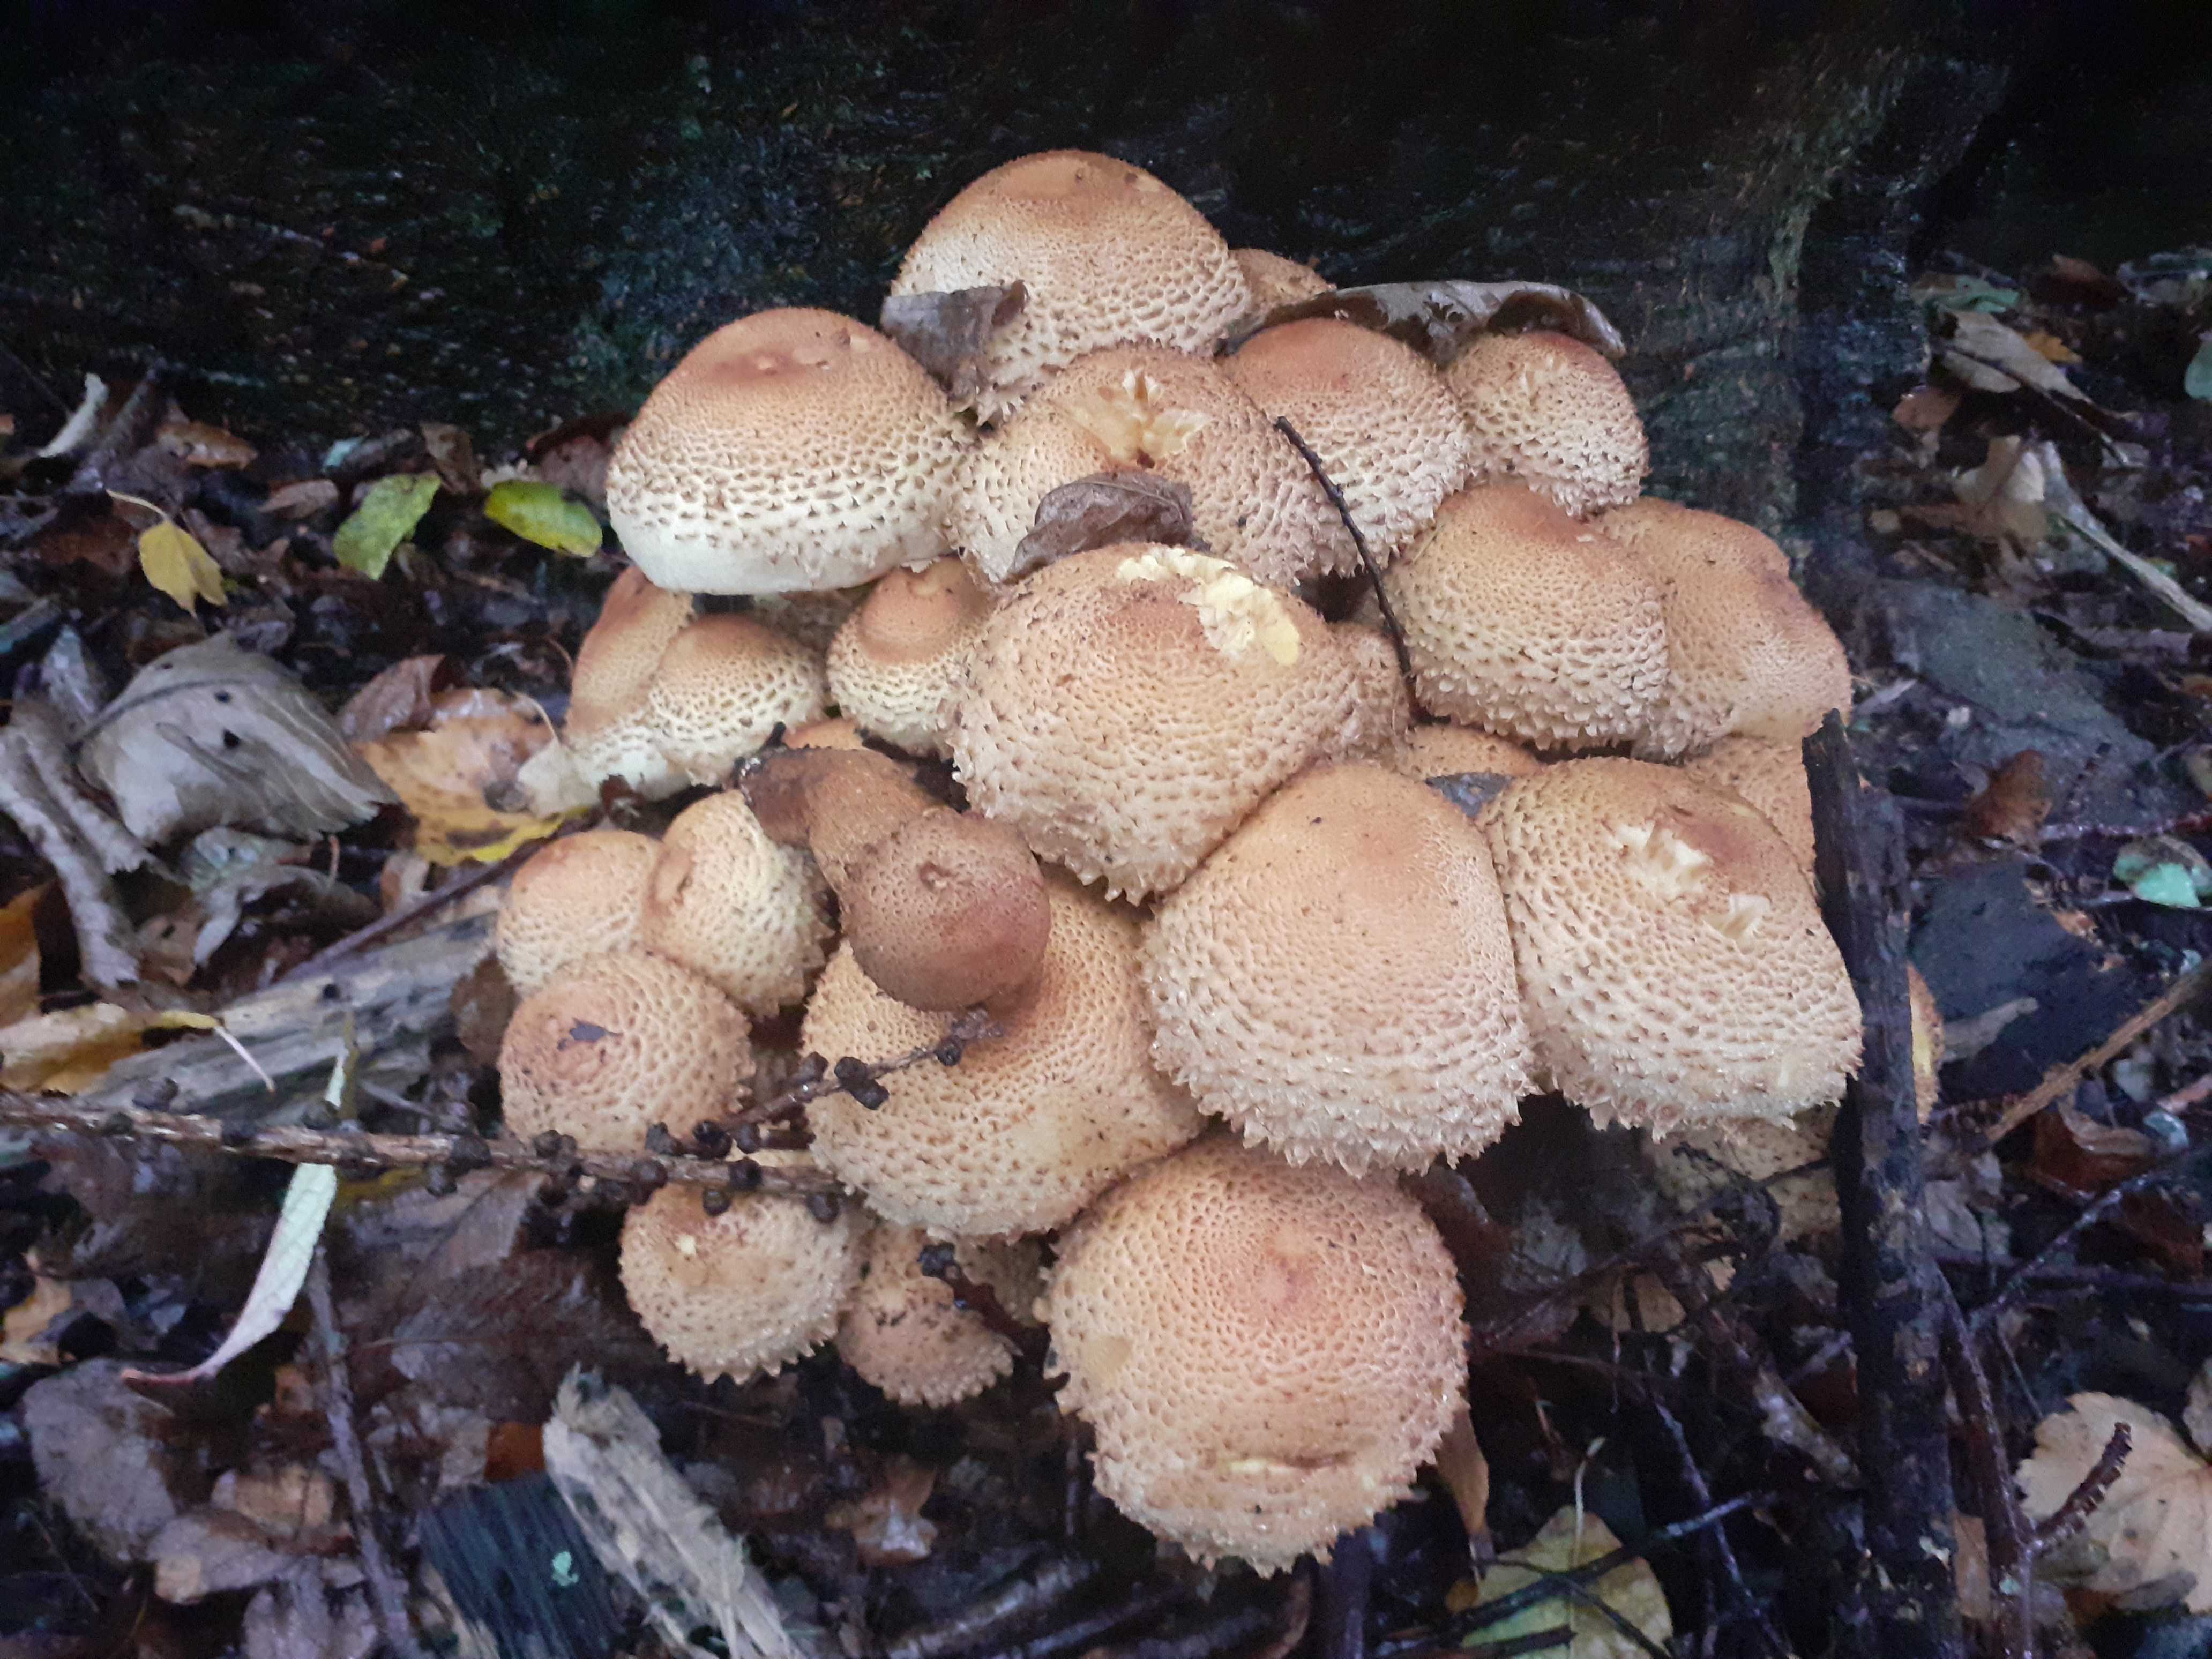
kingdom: Fungi
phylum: Basidiomycota
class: Agaricomycetes
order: Agaricales
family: Strophariaceae
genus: Pholiota
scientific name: Pholiota squarrosa
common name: krumskællet skælhat
